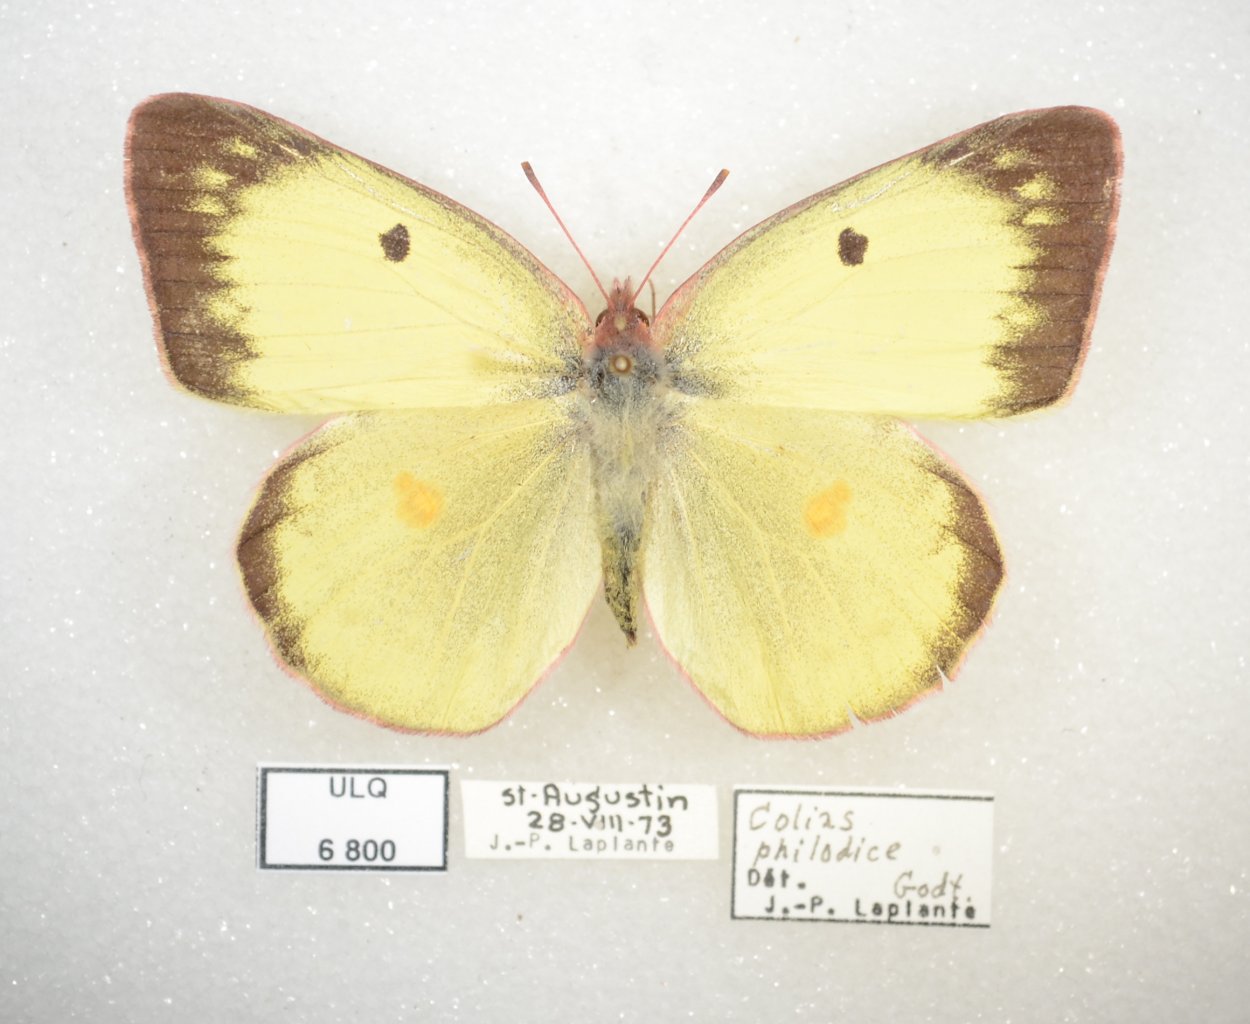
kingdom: Animalia
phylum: Arthropoda
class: Insecta
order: Lepidoptera
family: Pieridae
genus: Colias
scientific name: Colias philodice
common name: Clouded Sulphur
